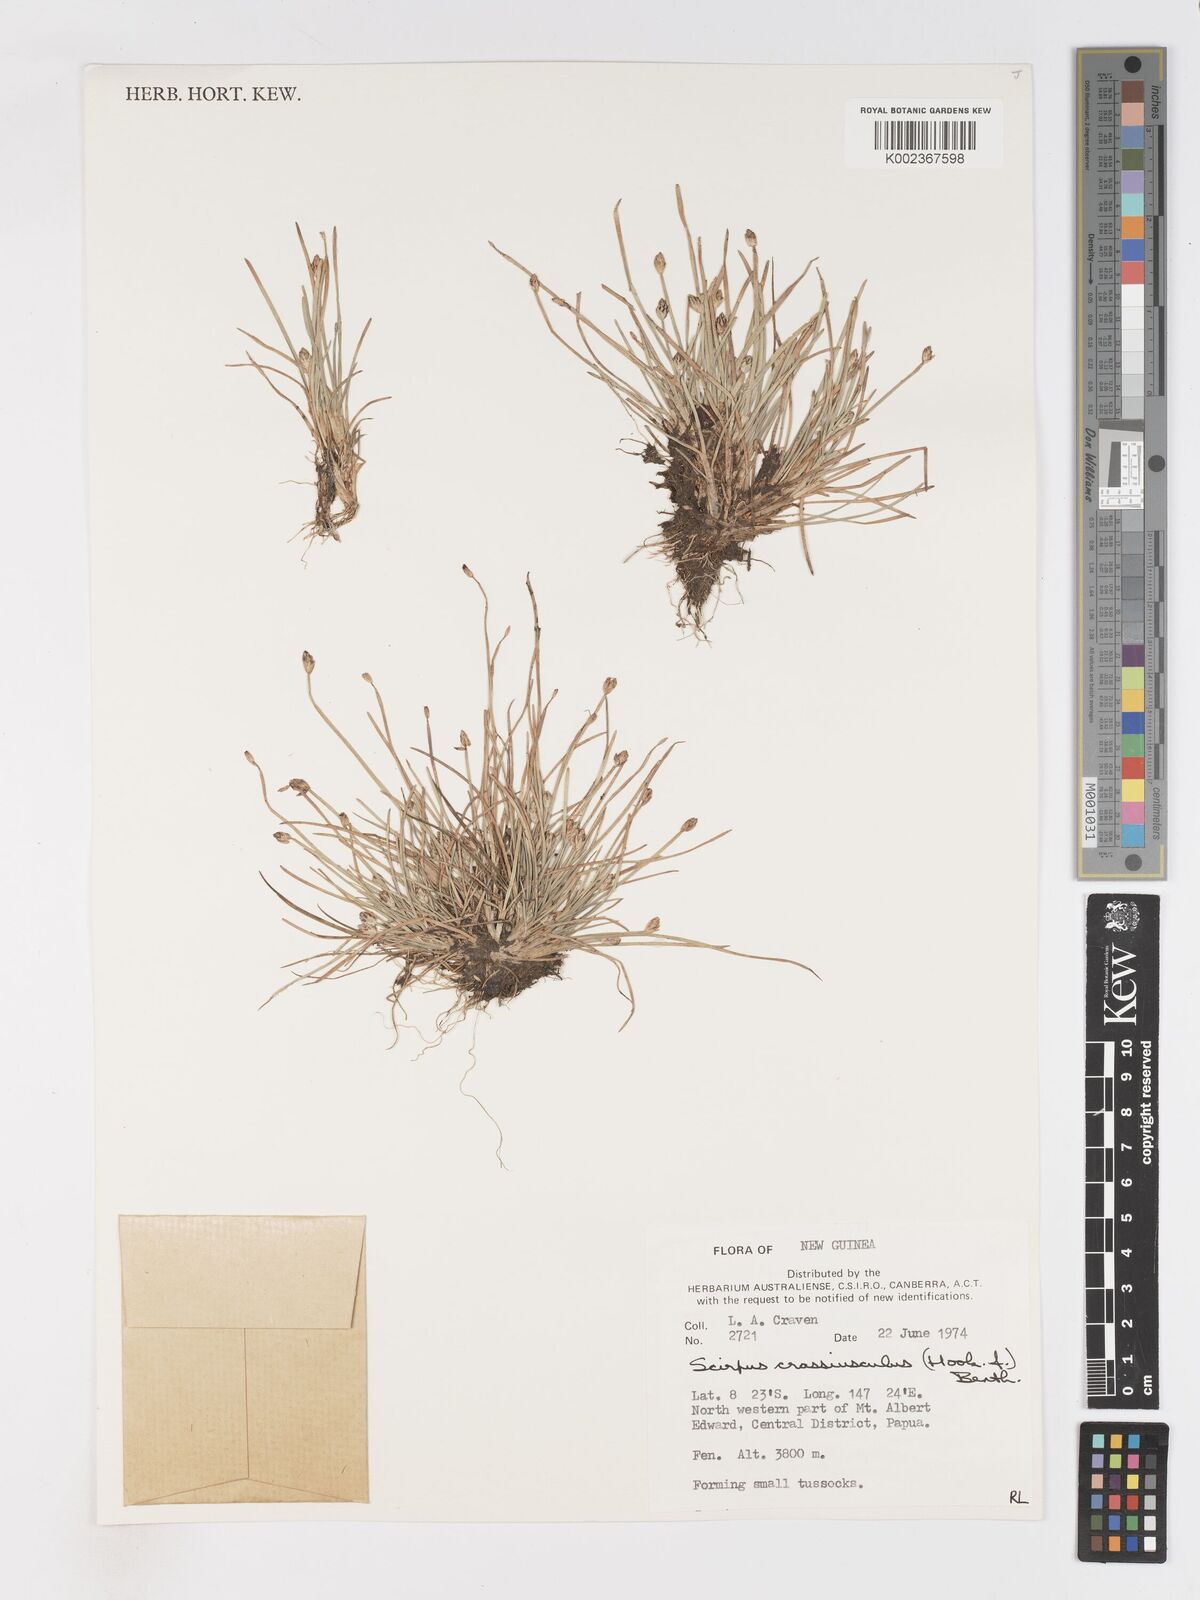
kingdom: Plantae
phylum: Tracheophyta
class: Liliopsida
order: Poales
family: Cyperaceae
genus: Isolepis
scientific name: Isolepis crassiuscula
